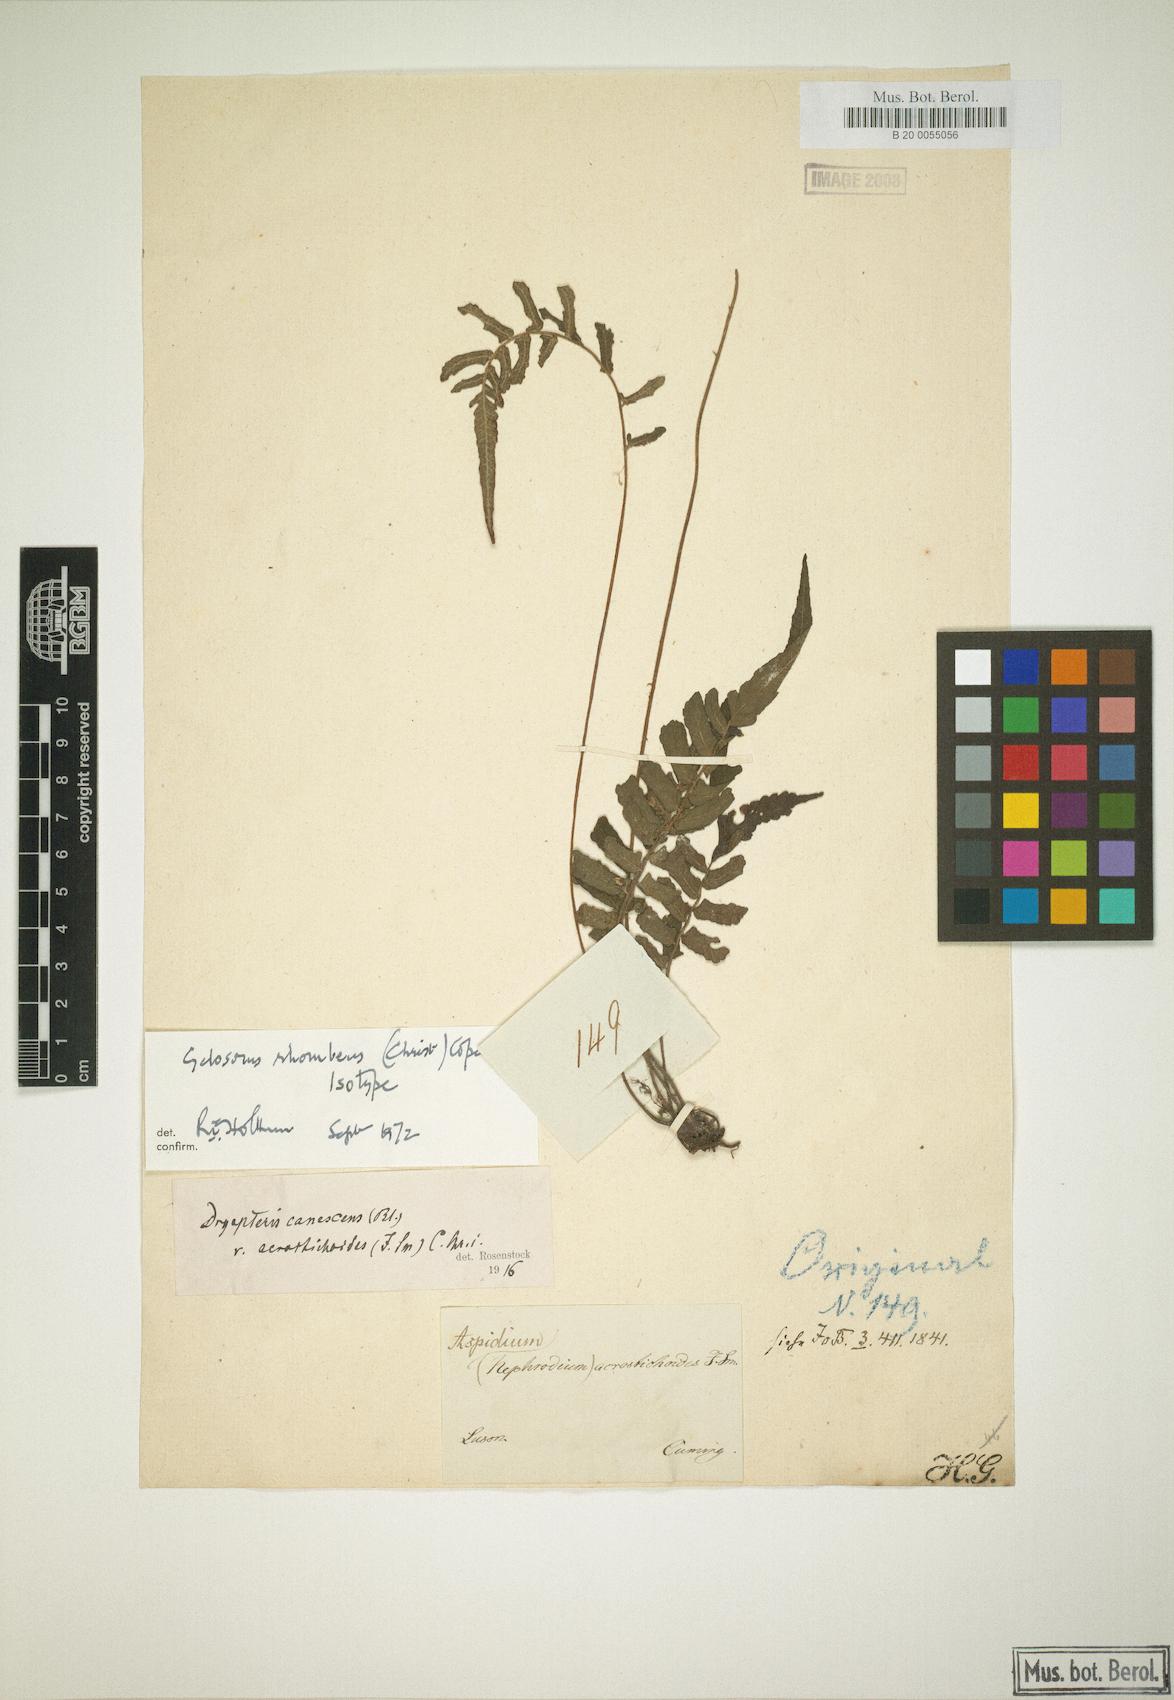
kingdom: Plantae
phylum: Tracheophyta
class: Polypodiopsida
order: Polypodiales
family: Thelypteridaceae
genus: Sphaerostephanos
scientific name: Sphaerostephanos diversilobus
